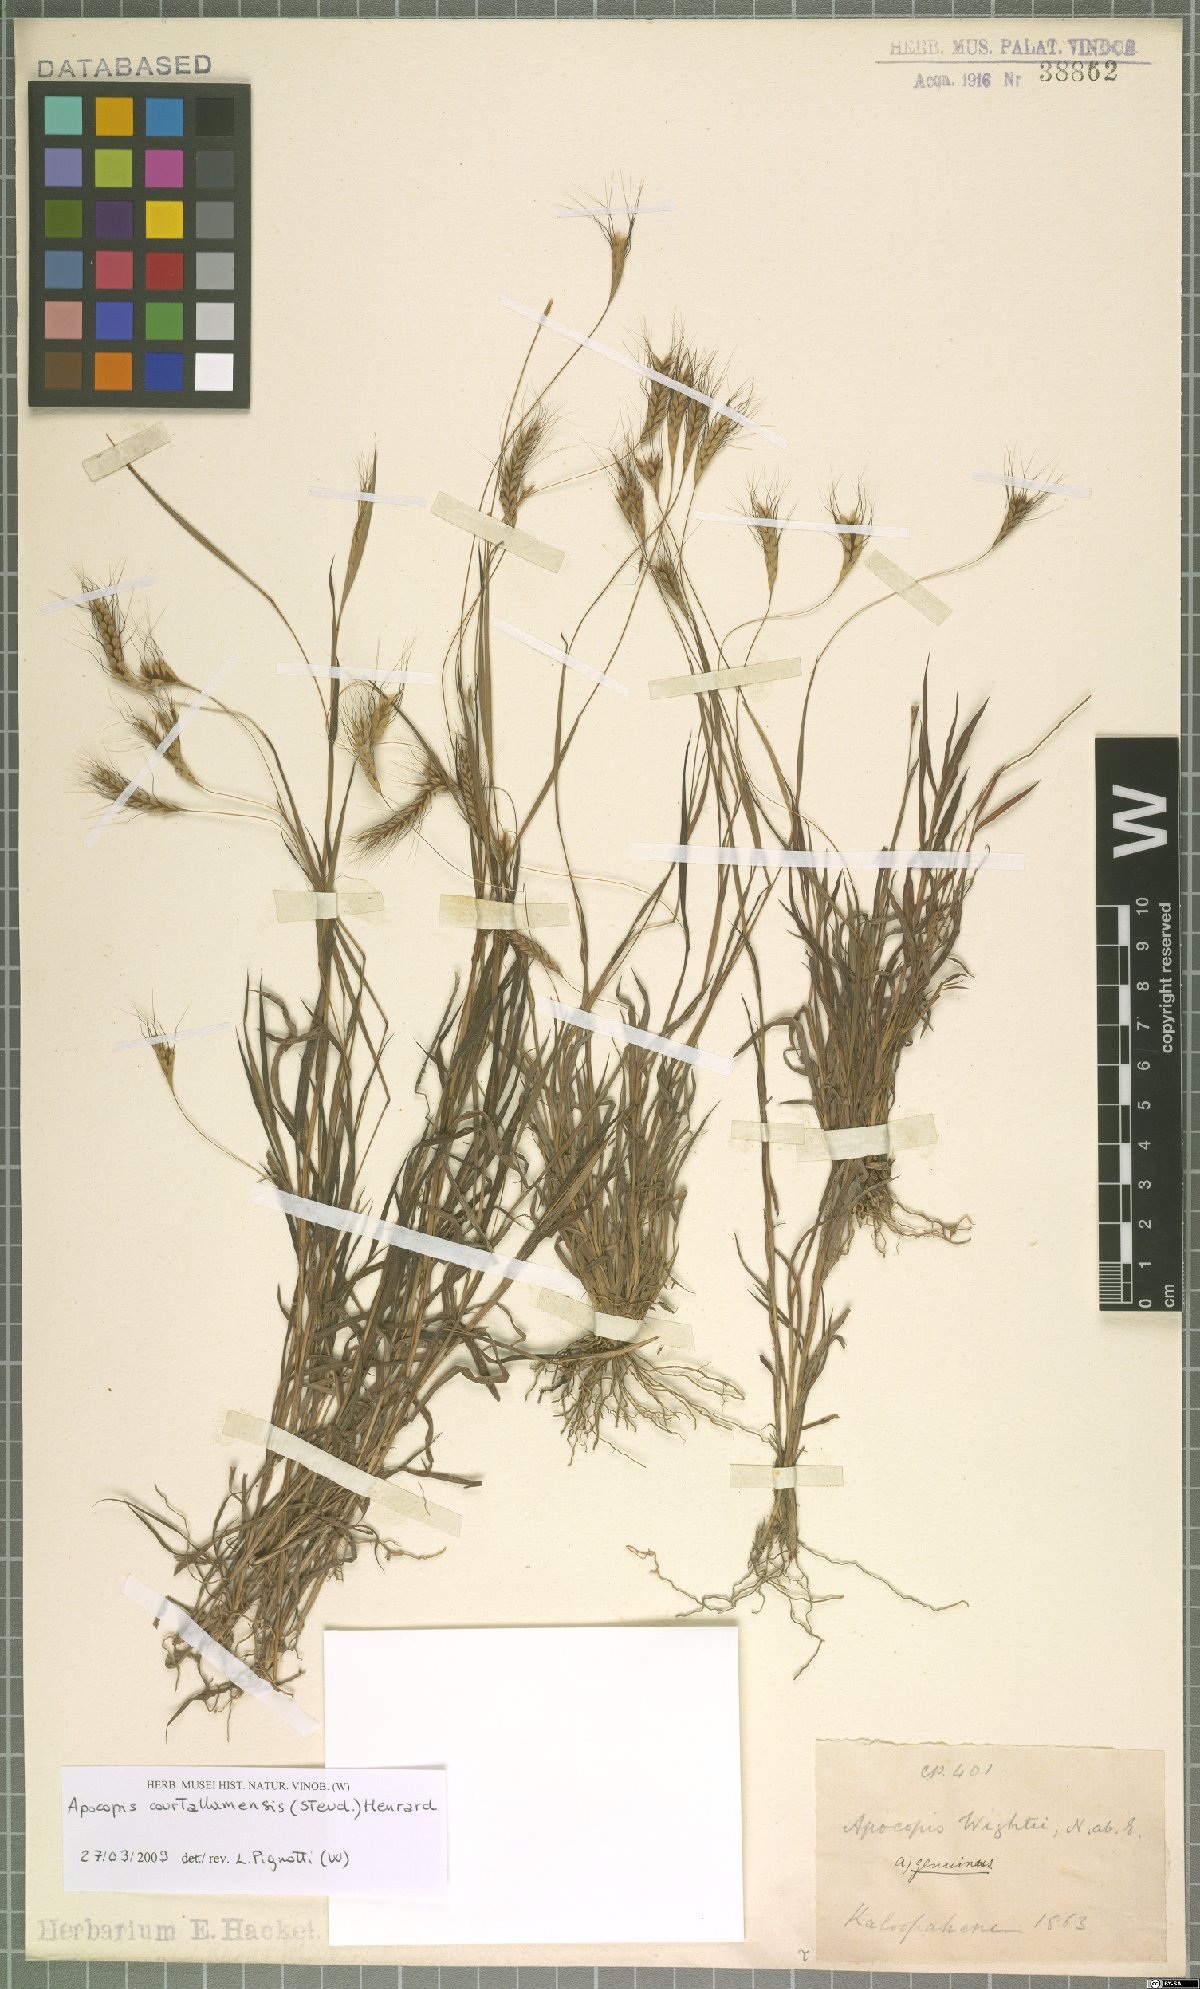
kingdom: Plantae
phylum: Tracheophyta
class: Liliopsida
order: Poales
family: Poaceae
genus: Apocopis
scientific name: Apocopis courtallumensis
